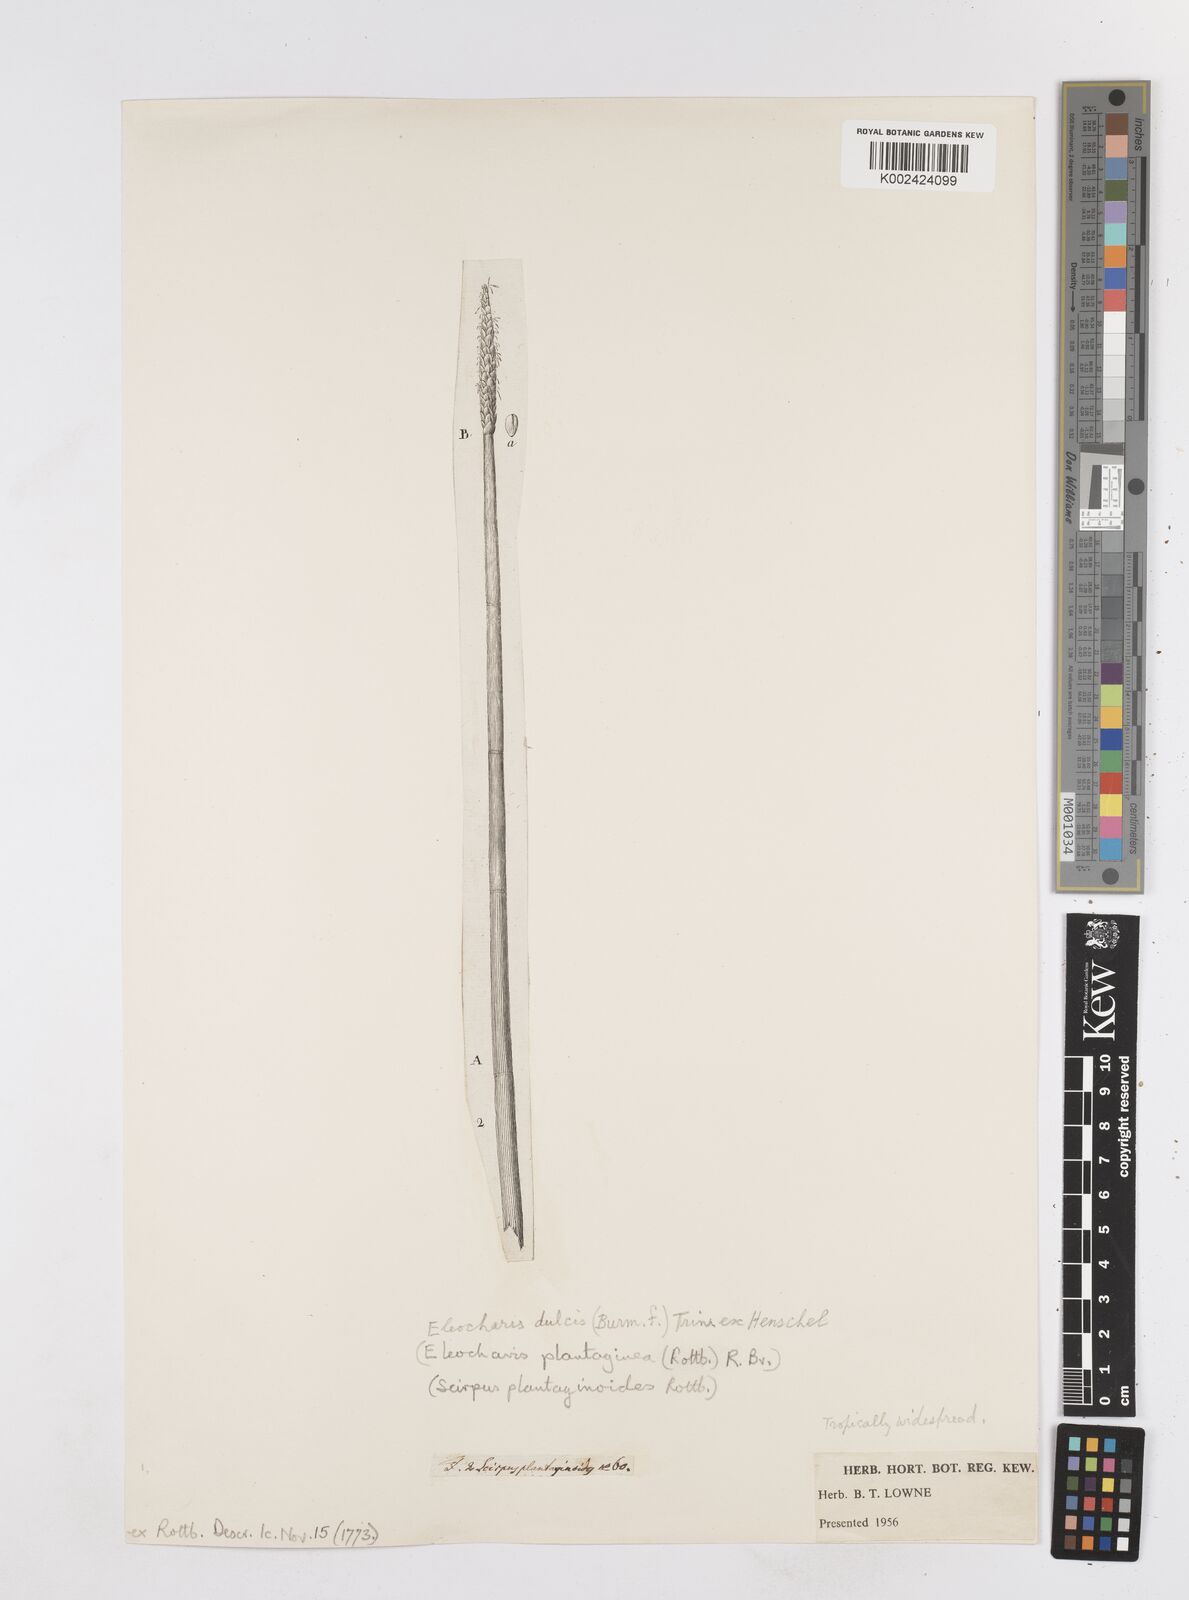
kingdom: Plantae
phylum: Tracheophyta
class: Liliopsida
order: Poales
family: Cyperaceae
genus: Eleocharis
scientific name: Eleocharis dulcis
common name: Chinese water chestnut
